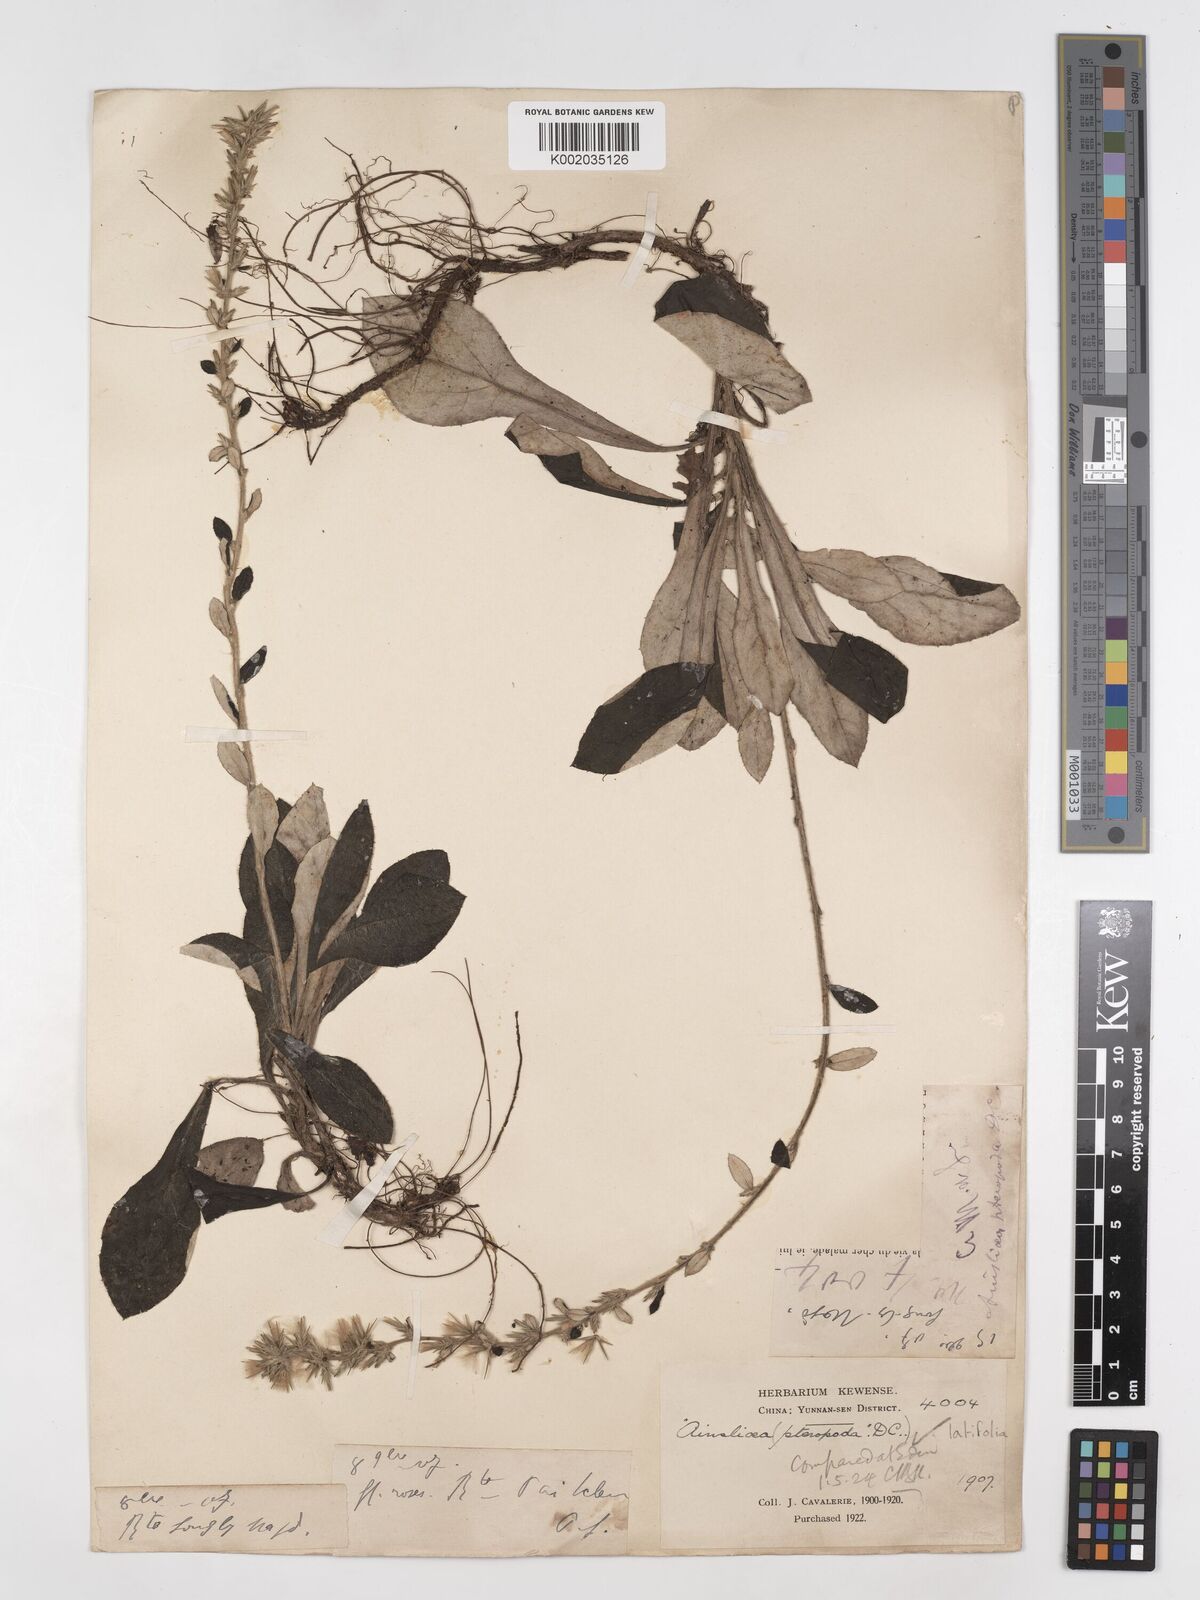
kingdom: Plantae
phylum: Tracheophyta
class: Magnoliopsida
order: Asterales
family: Asteraceae
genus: Ainsliaea
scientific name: Ainsliaea latifolia
